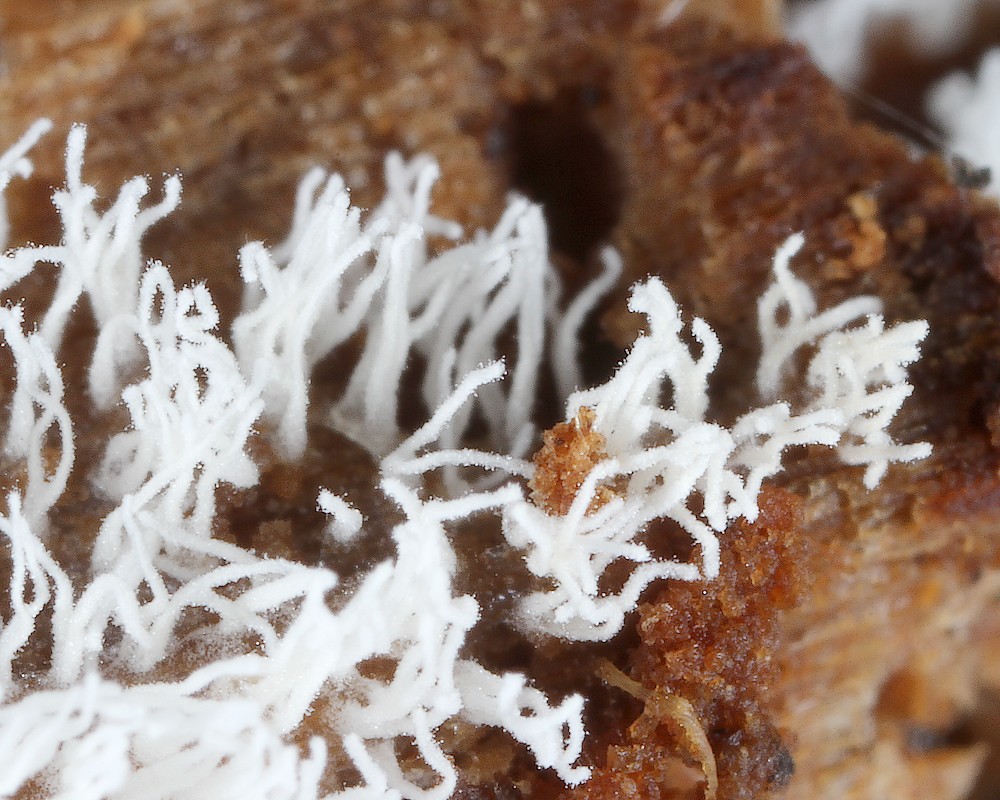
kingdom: Protozoa
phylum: Mycetozoa
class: Protosteliomycetes
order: Ceratiomyxales
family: Ceratiomyxaceae
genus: Ceratiomyxa
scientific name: Ceratiomyxa fruticulosa
